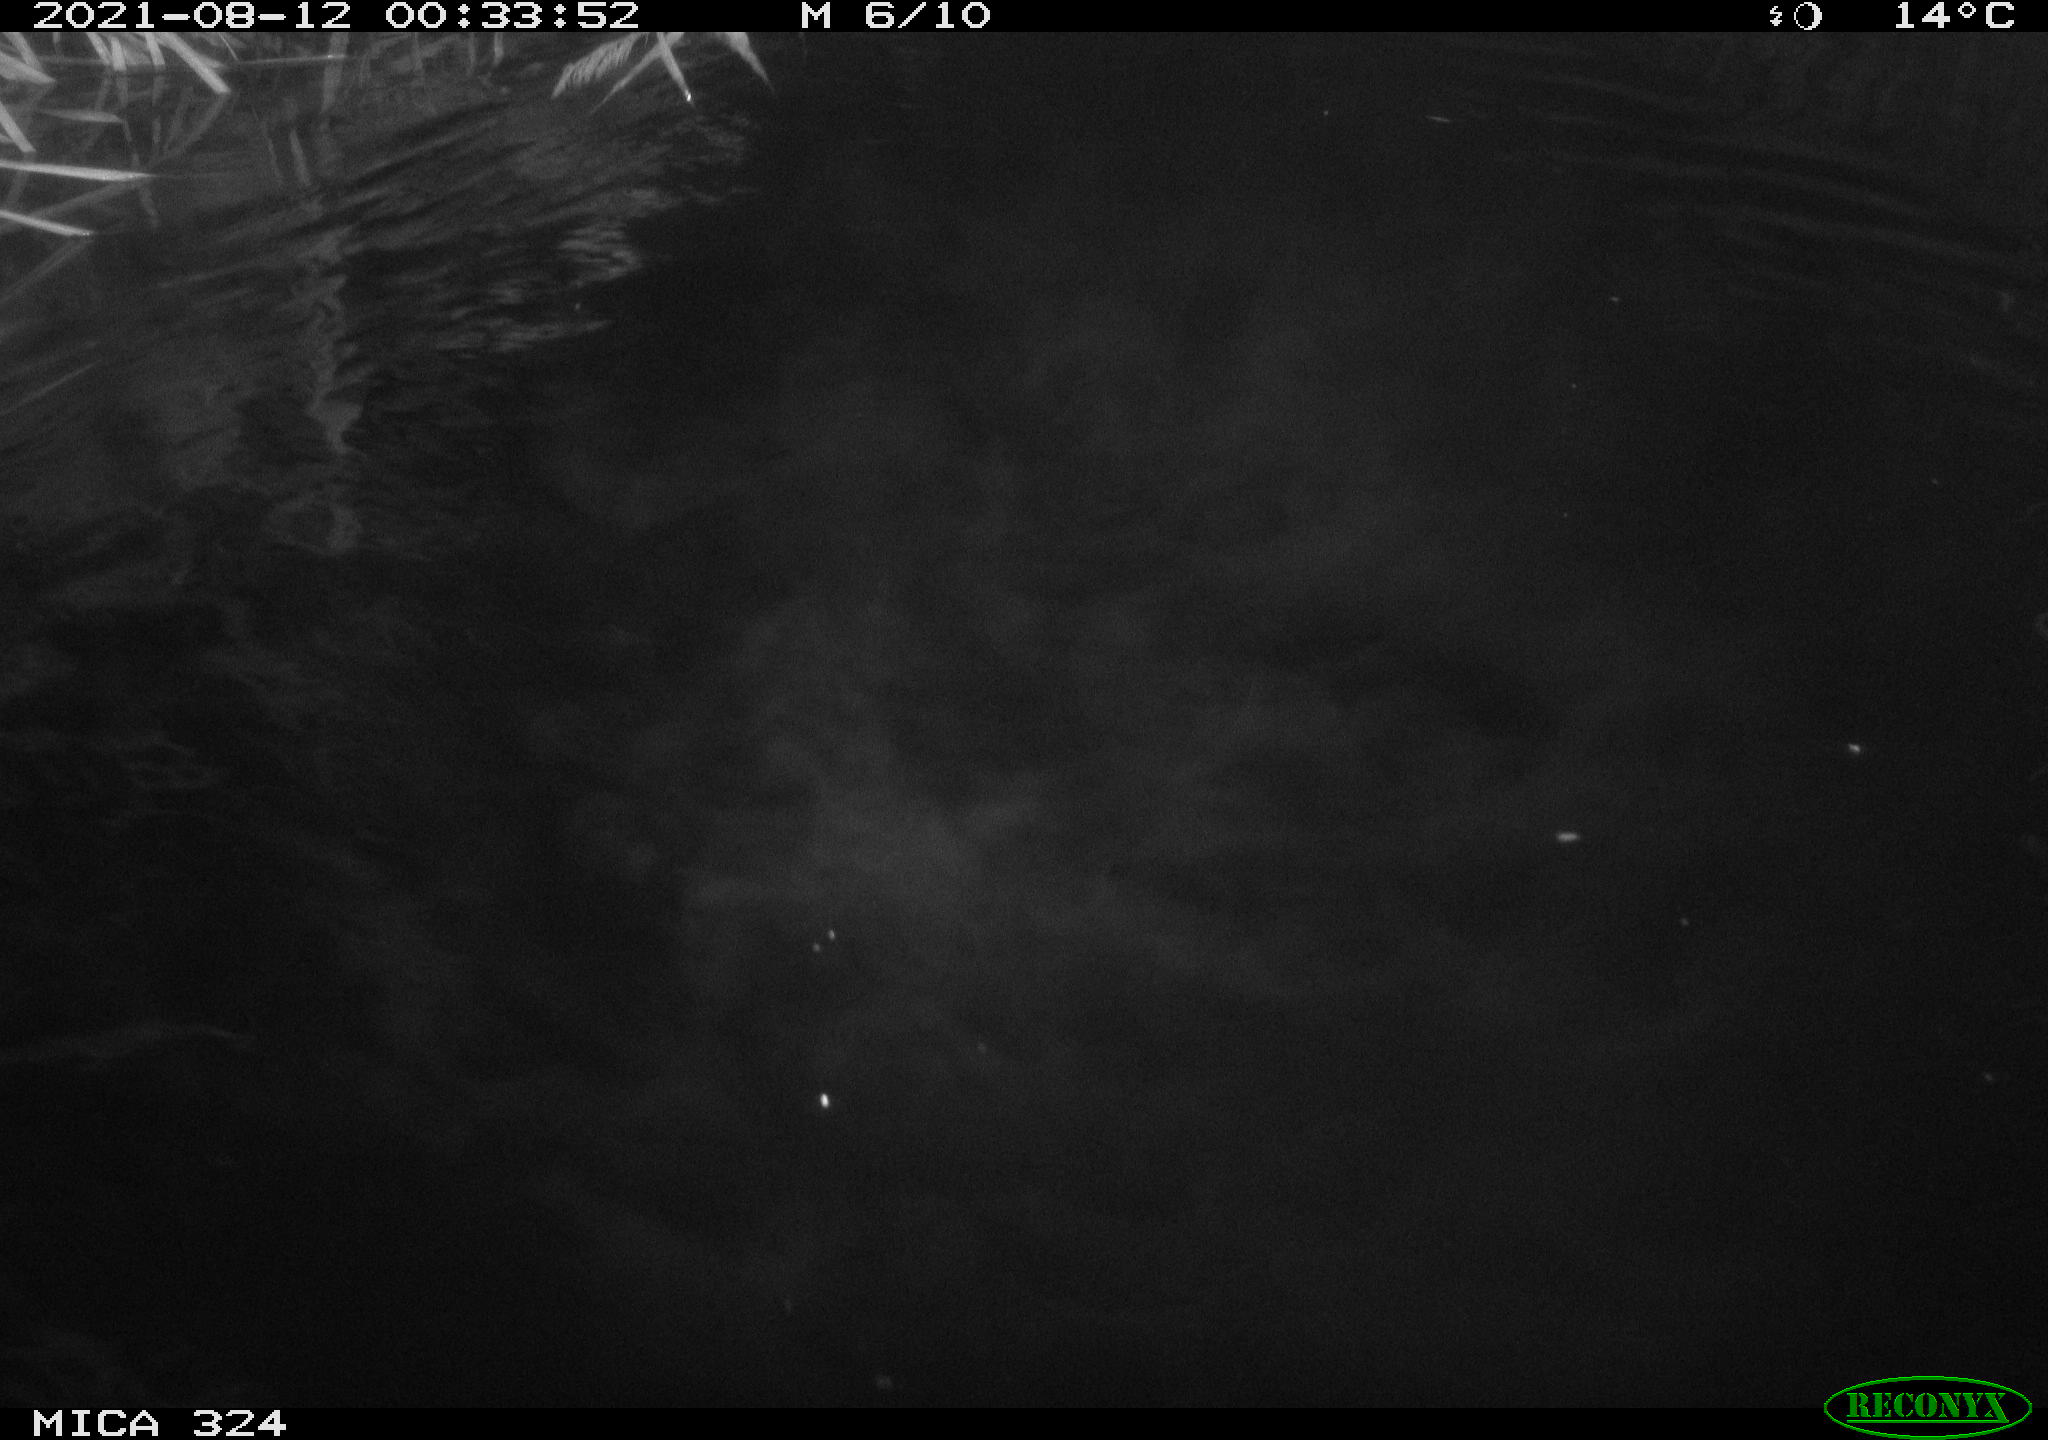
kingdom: Animalia
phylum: Chordata
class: Mammalia
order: Rodentia
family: Cricetidae
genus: Ondatra
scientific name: Ondatra zibethicus
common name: Muskrat
